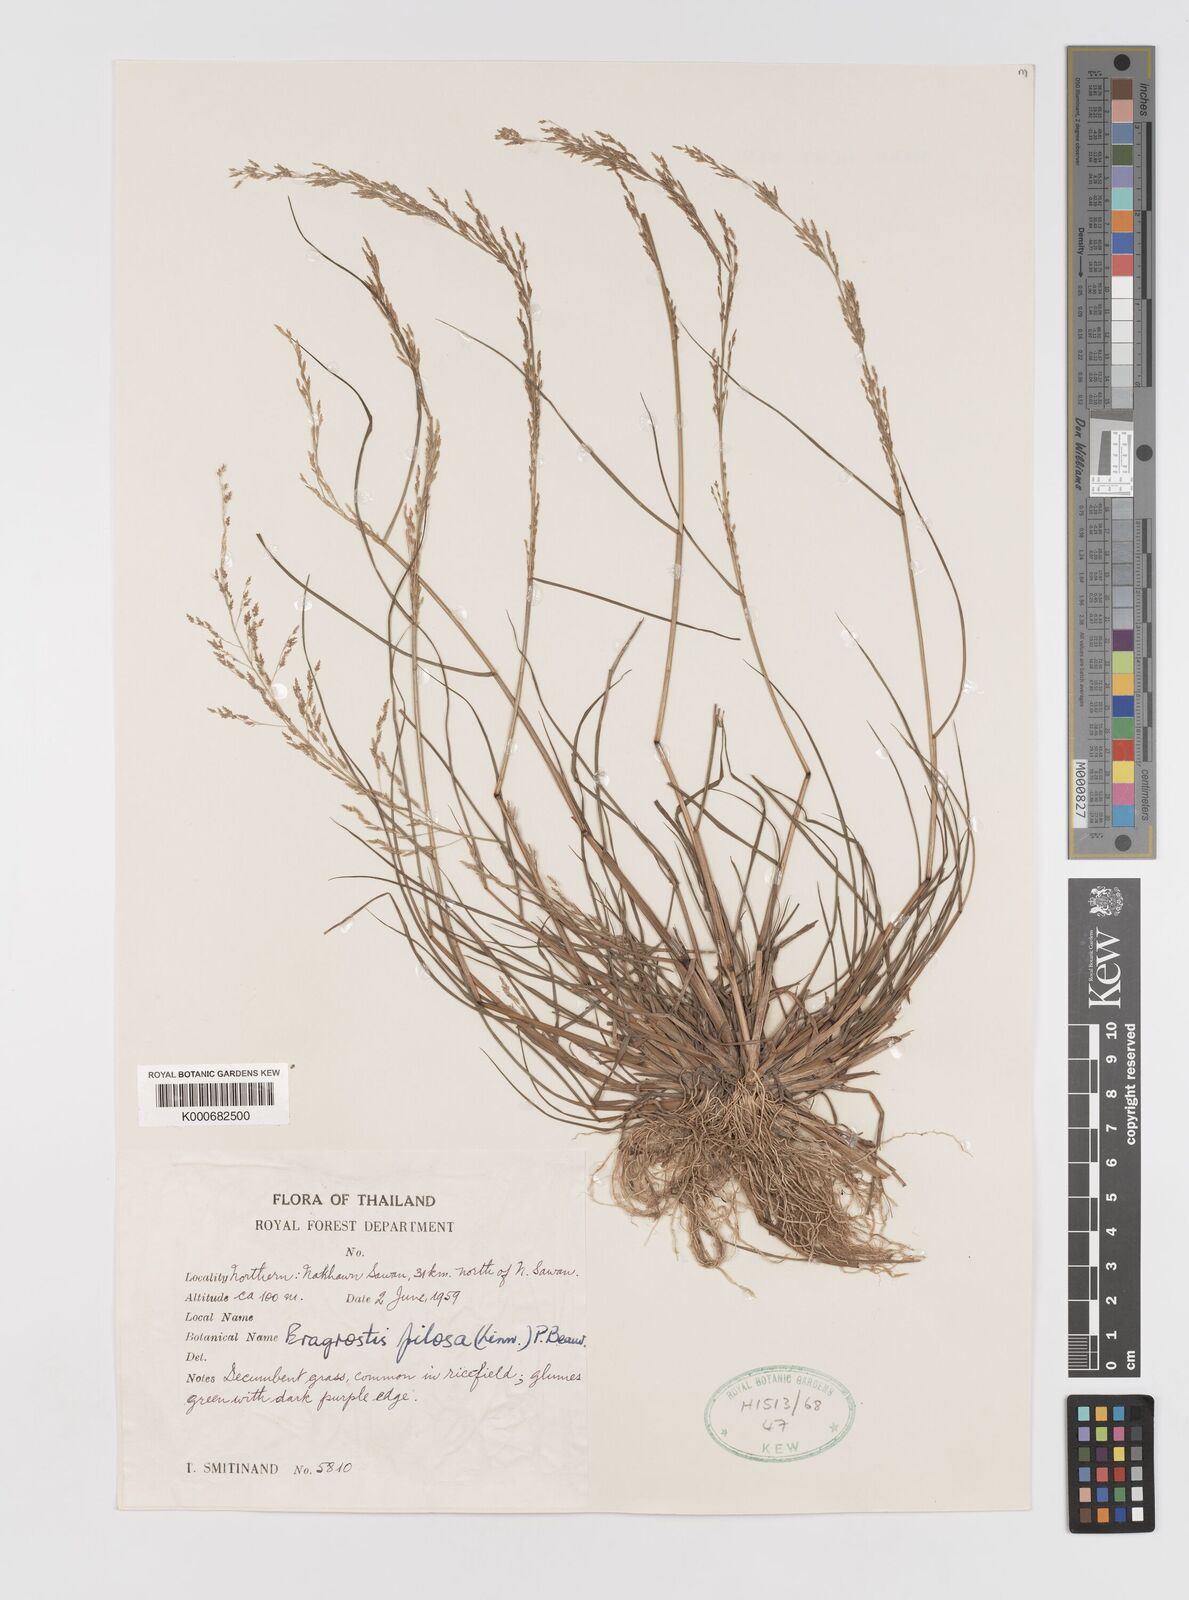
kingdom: Plantae
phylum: Tracheophyta
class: Liliopsida
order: Poales
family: Poaceae
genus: Eragrostis
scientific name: Eragrostis pilosa
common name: Indian lovegrass
